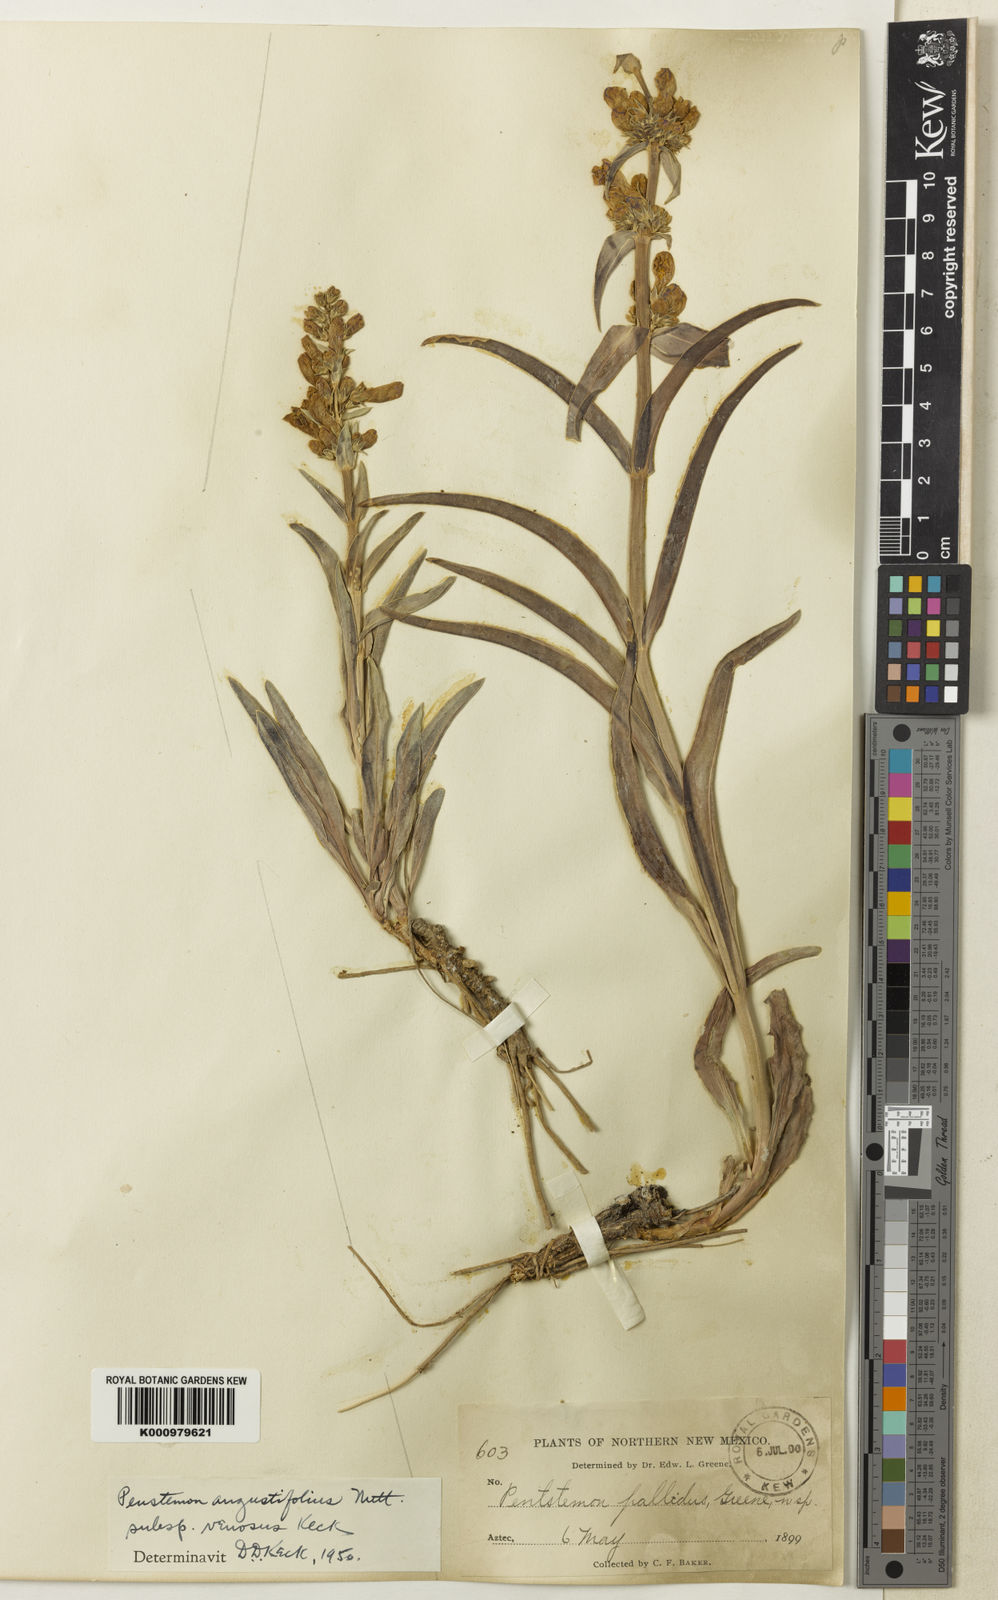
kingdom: Plantae
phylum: Tracheophyta
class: Magnoliopsida
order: Lamiales
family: Plantaginaceae
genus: Penstemon
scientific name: Penstemon angustifolius
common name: Narrow beardtongue
